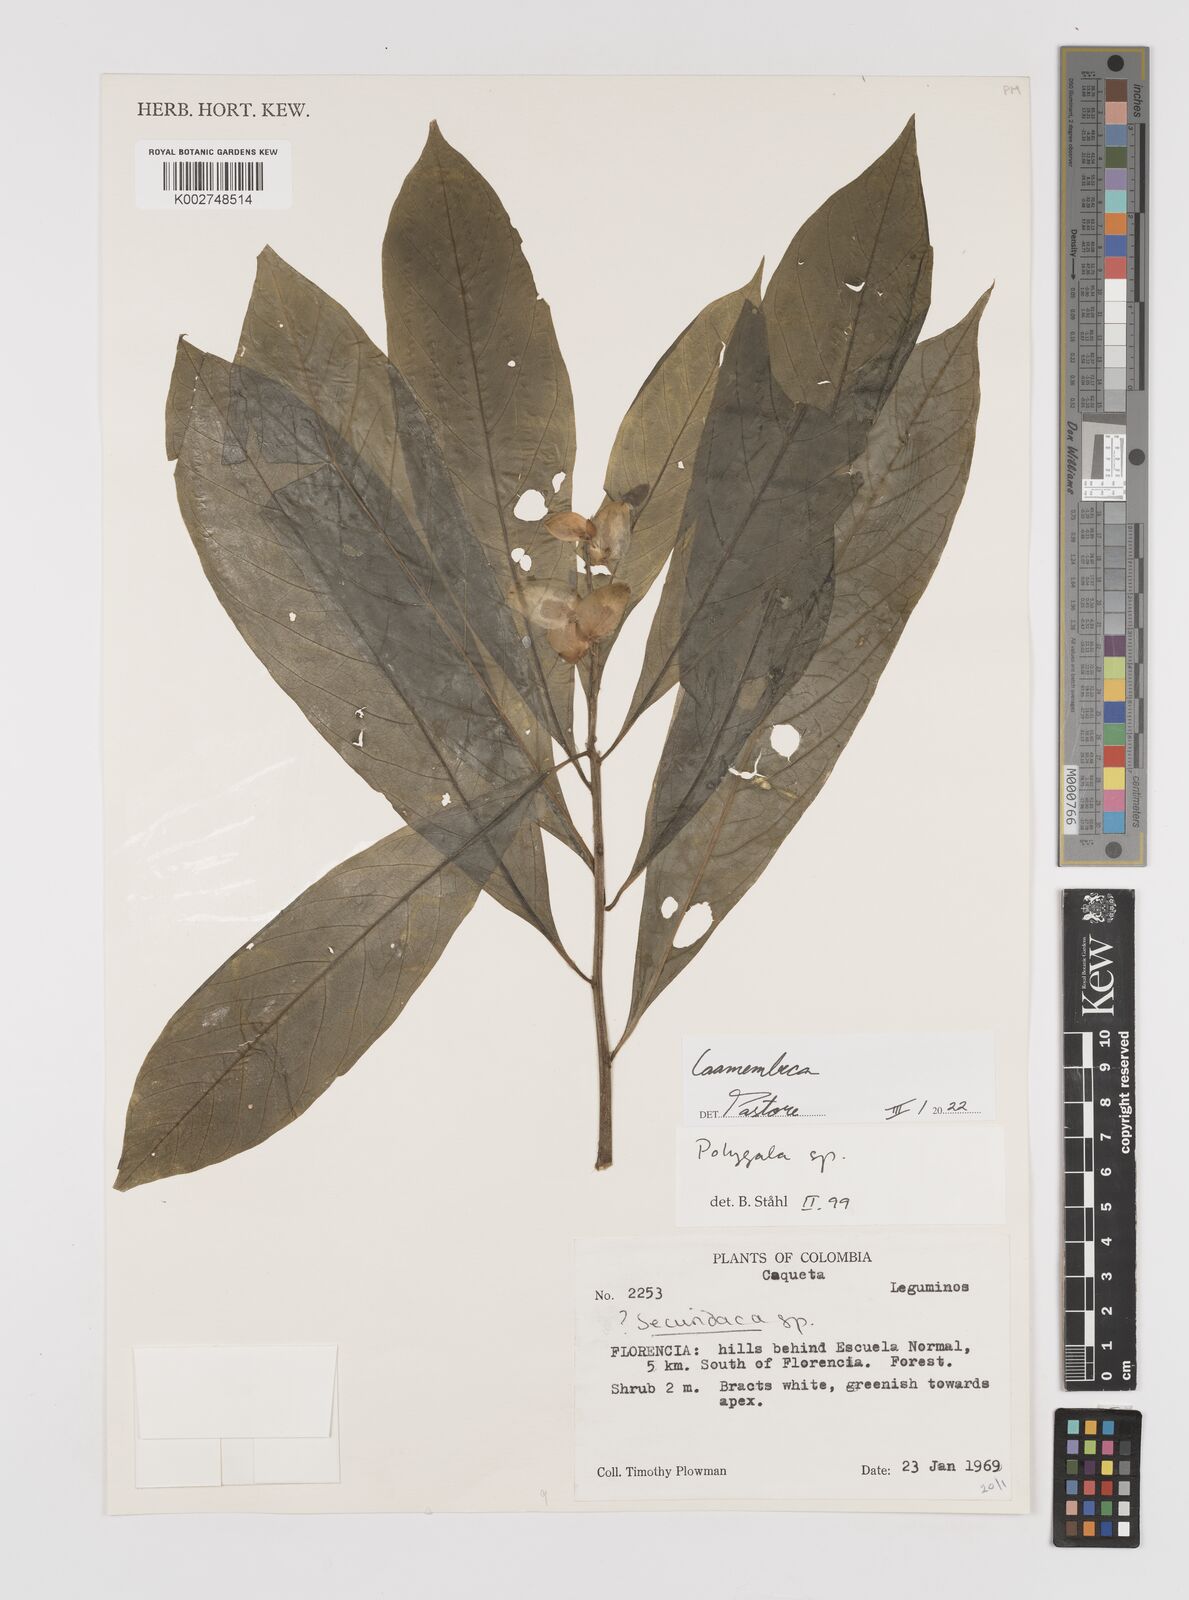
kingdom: Plantae
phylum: Tracheophyta
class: Magnoliopsida
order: Fabales
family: Polygalaceae
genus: Caamembeca
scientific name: Caamembeca
